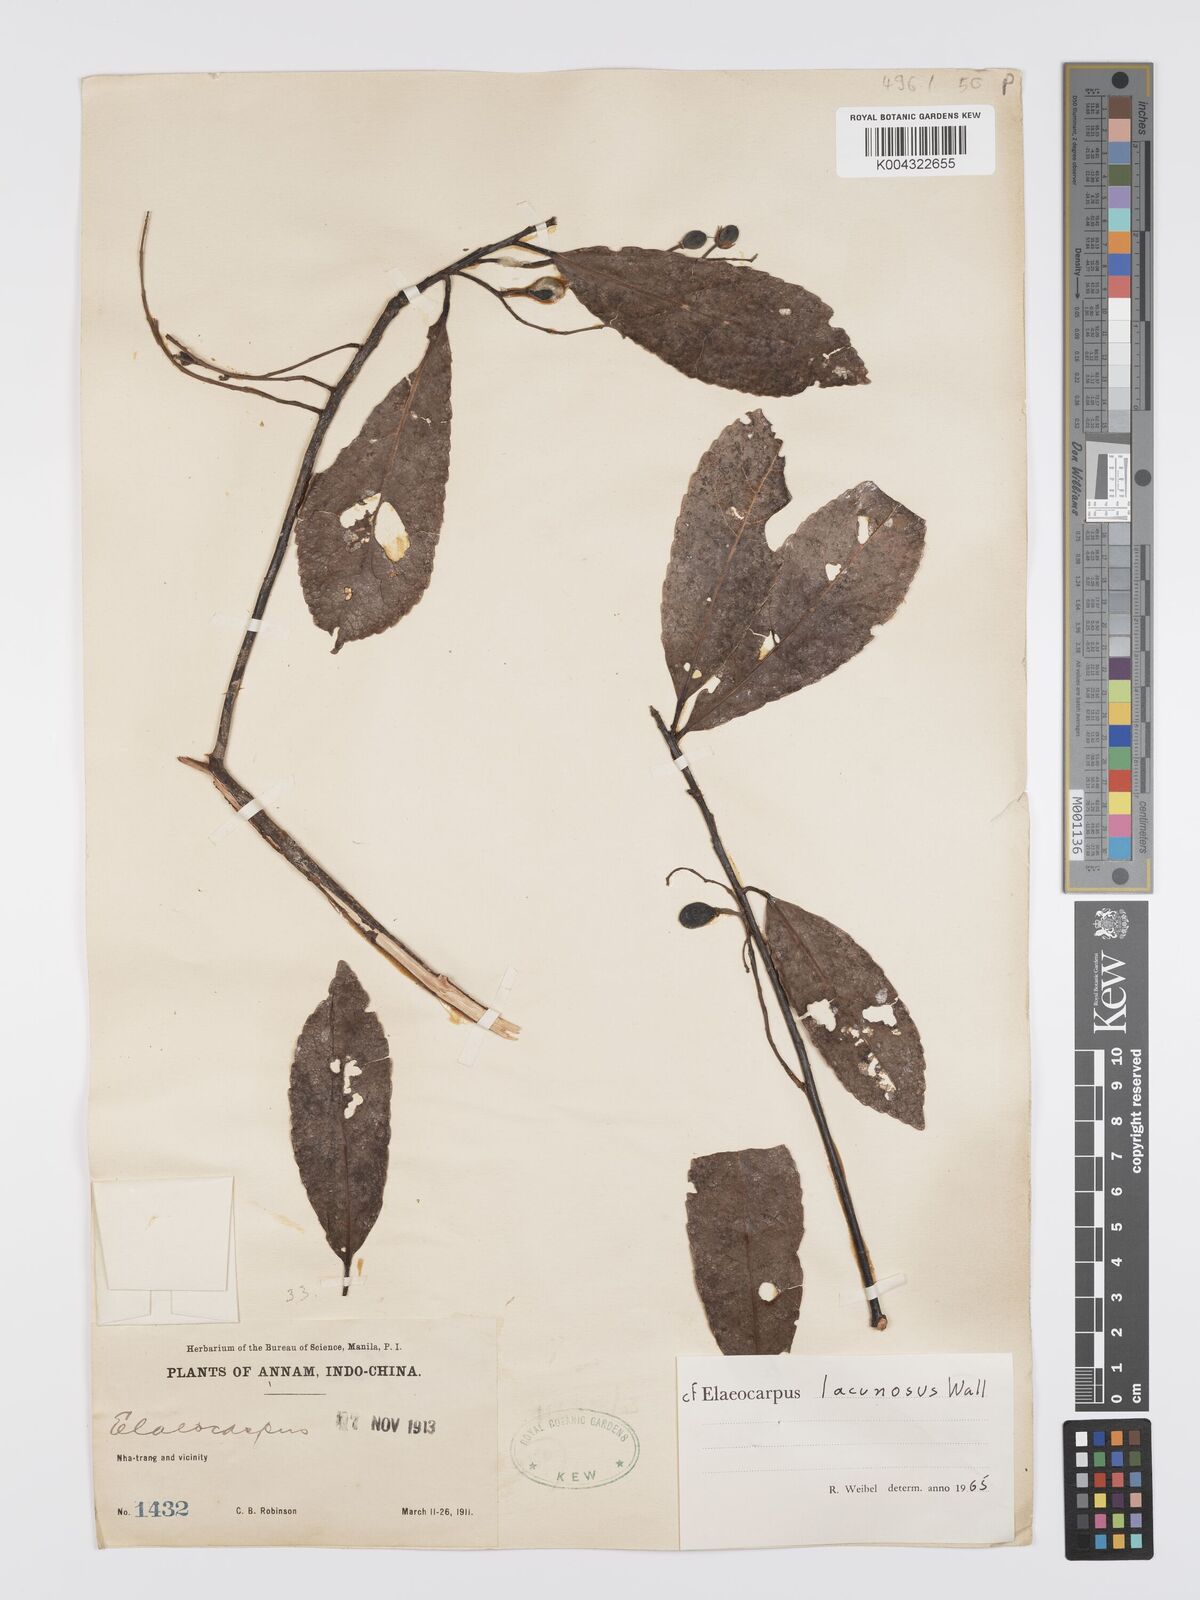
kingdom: Plantae
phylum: Tracheophyta
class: Magnoliopsida
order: Oxalidales
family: Elaeocarpaceae
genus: Elaeocarpus
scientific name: Elaeocarpus lanceifolius
